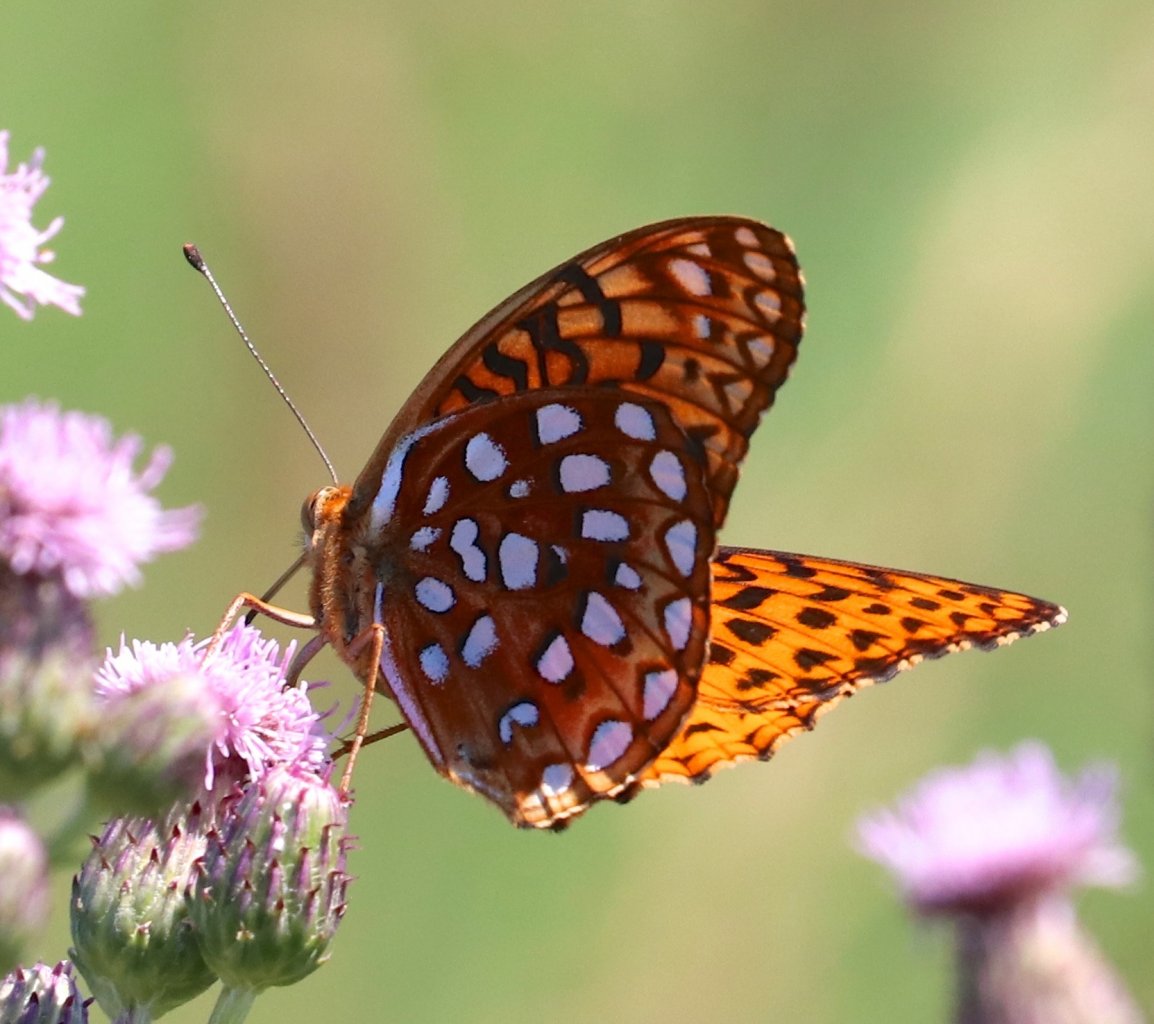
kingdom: Animalia
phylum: Arthropoda
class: Insecta
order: Lepidoptera
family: Nymphalidae
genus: Speyeria
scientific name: Speyeria aphrodite
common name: Aphrodite Fritillary
